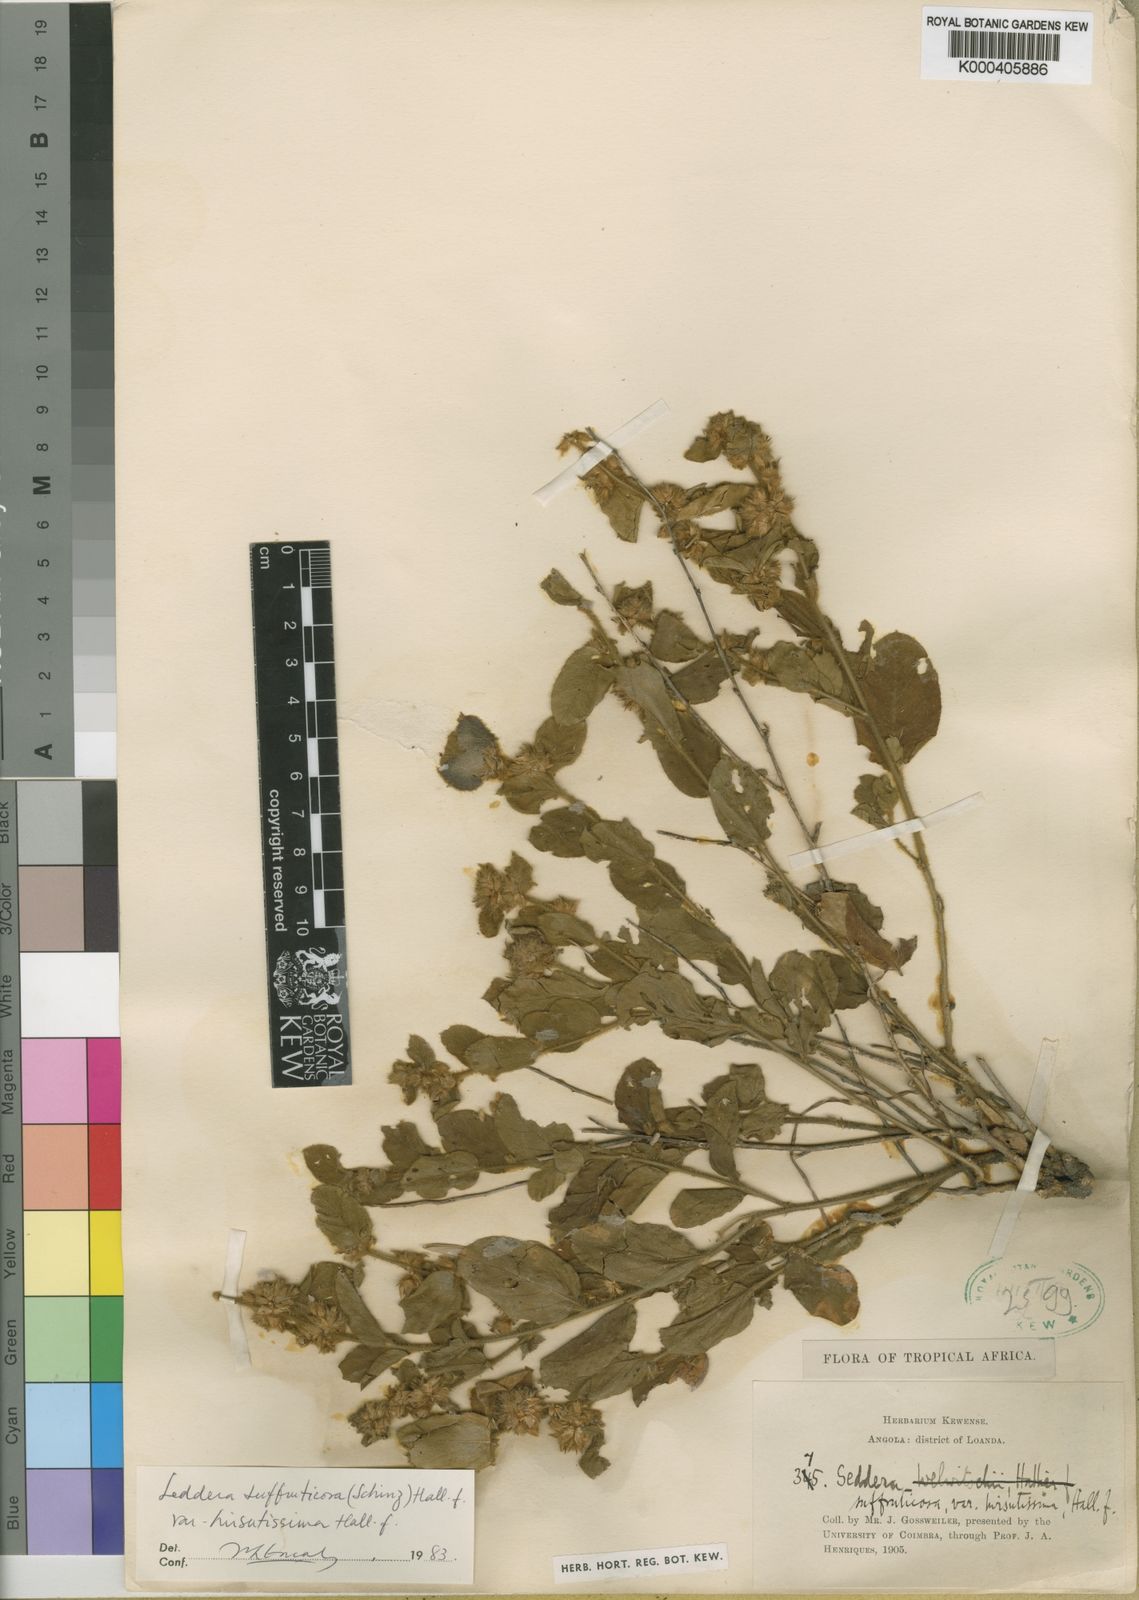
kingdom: Plantae
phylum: Tracheophyta
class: Magnoliopsida
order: Solanales
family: Convolvulaceae
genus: Seddera
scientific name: Seddera suffruticosa
